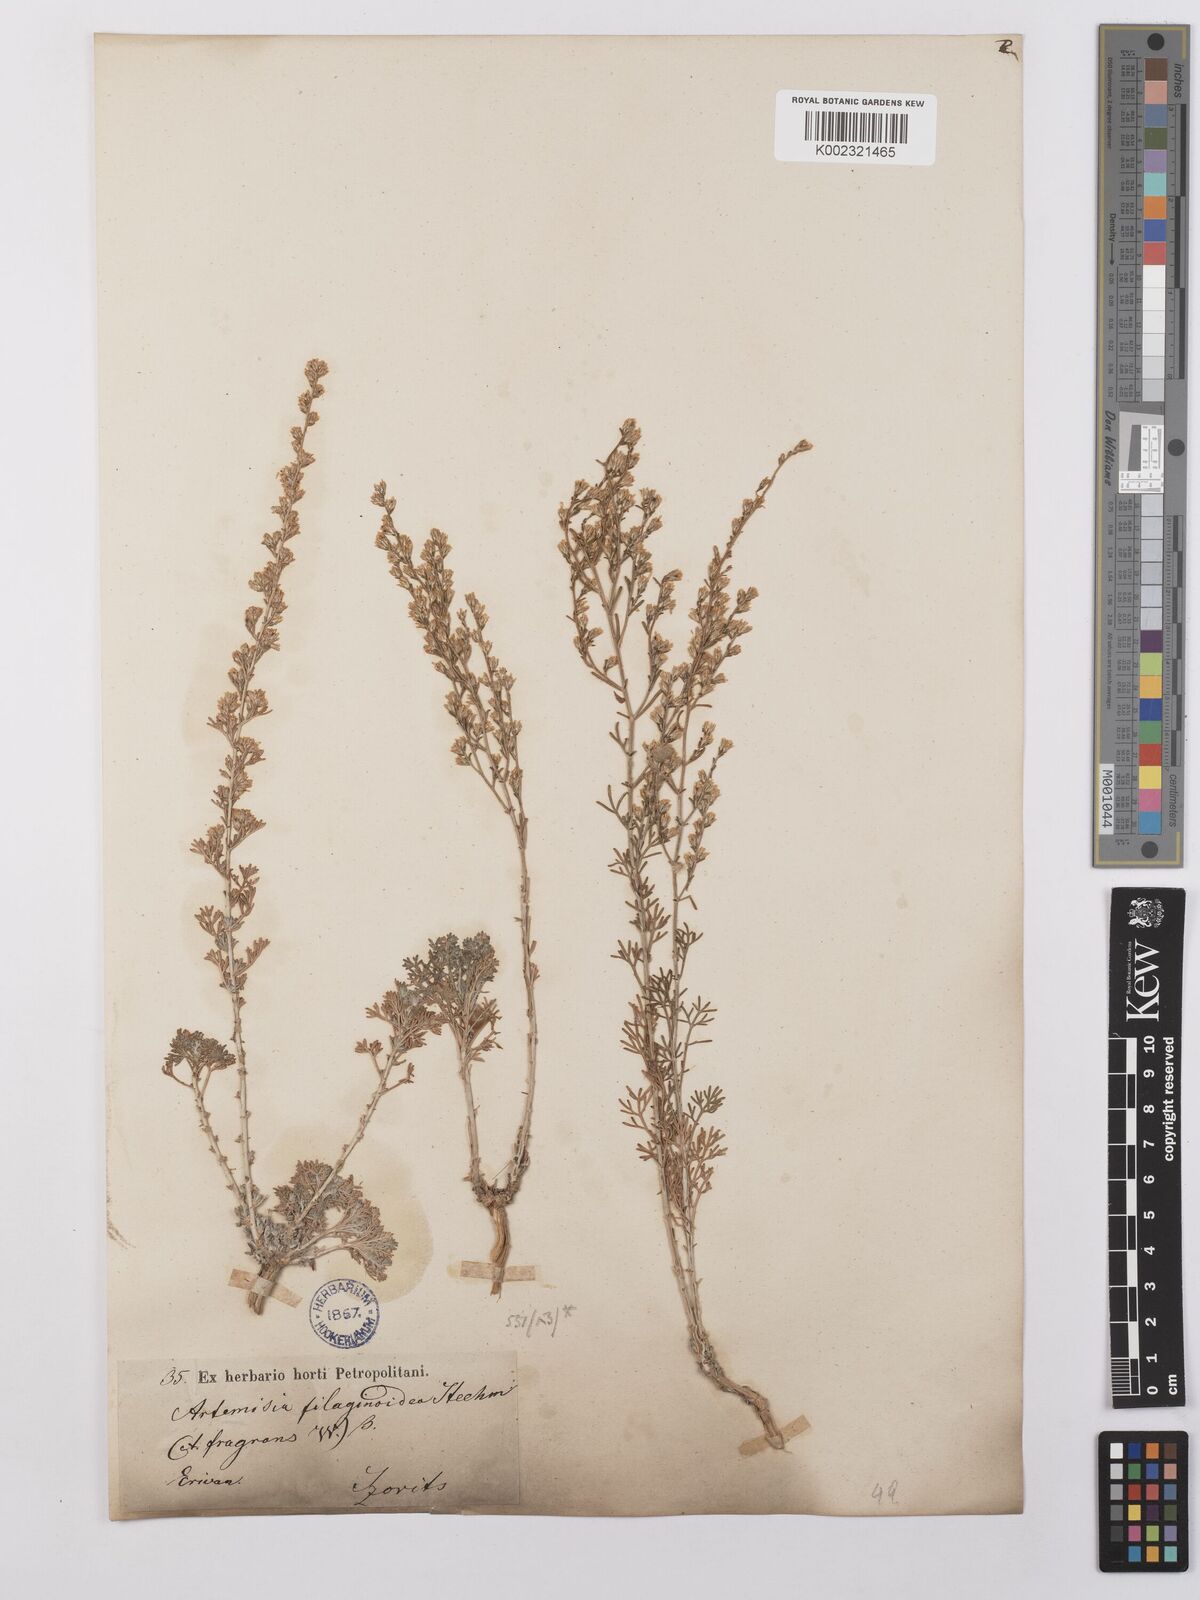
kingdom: Plantae
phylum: Tracheophyta
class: Magnoliopsida
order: Asterales
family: Asteraceae
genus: Artemisia
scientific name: Artemisia fragrans
